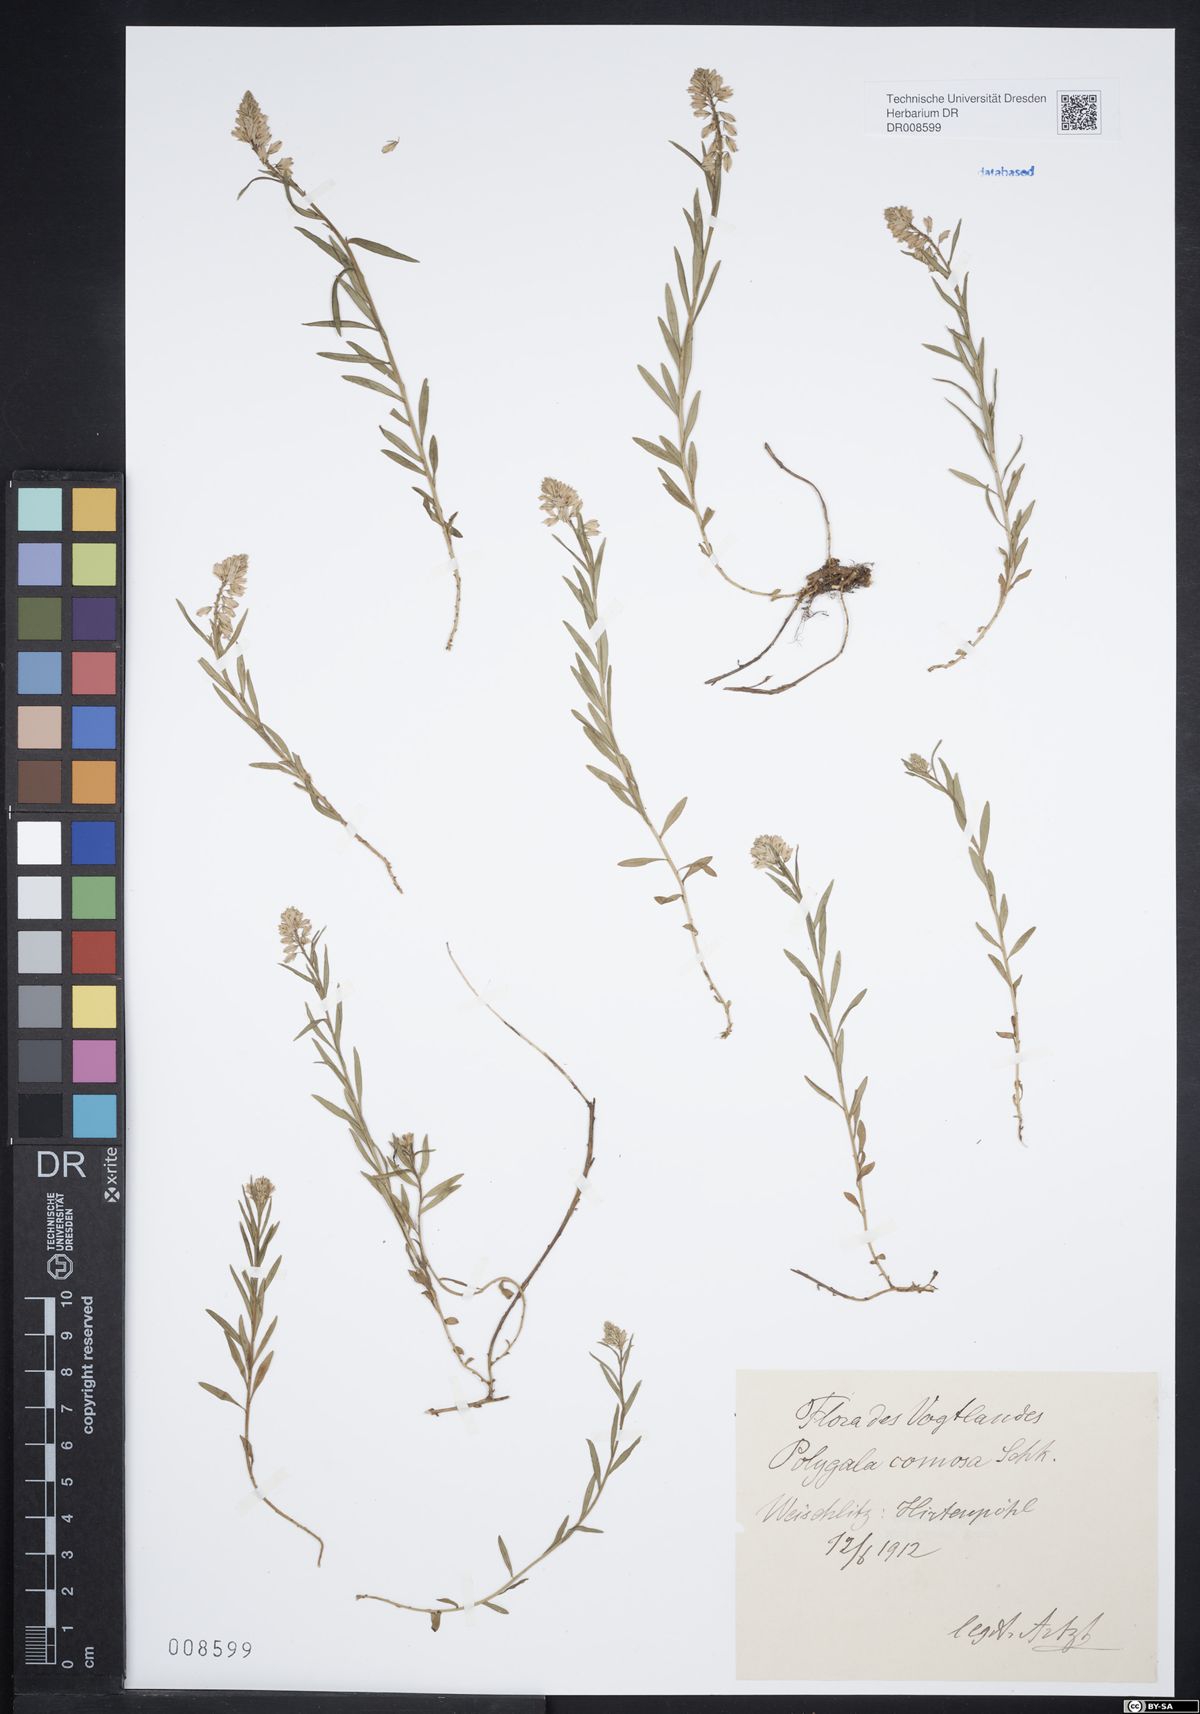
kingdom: Plantae
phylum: Tracheophyta
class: Magnoliopsida
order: Fabales
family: Polygalaceae
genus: Polygala
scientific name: Polygala comosa
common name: Tufted milkwort
